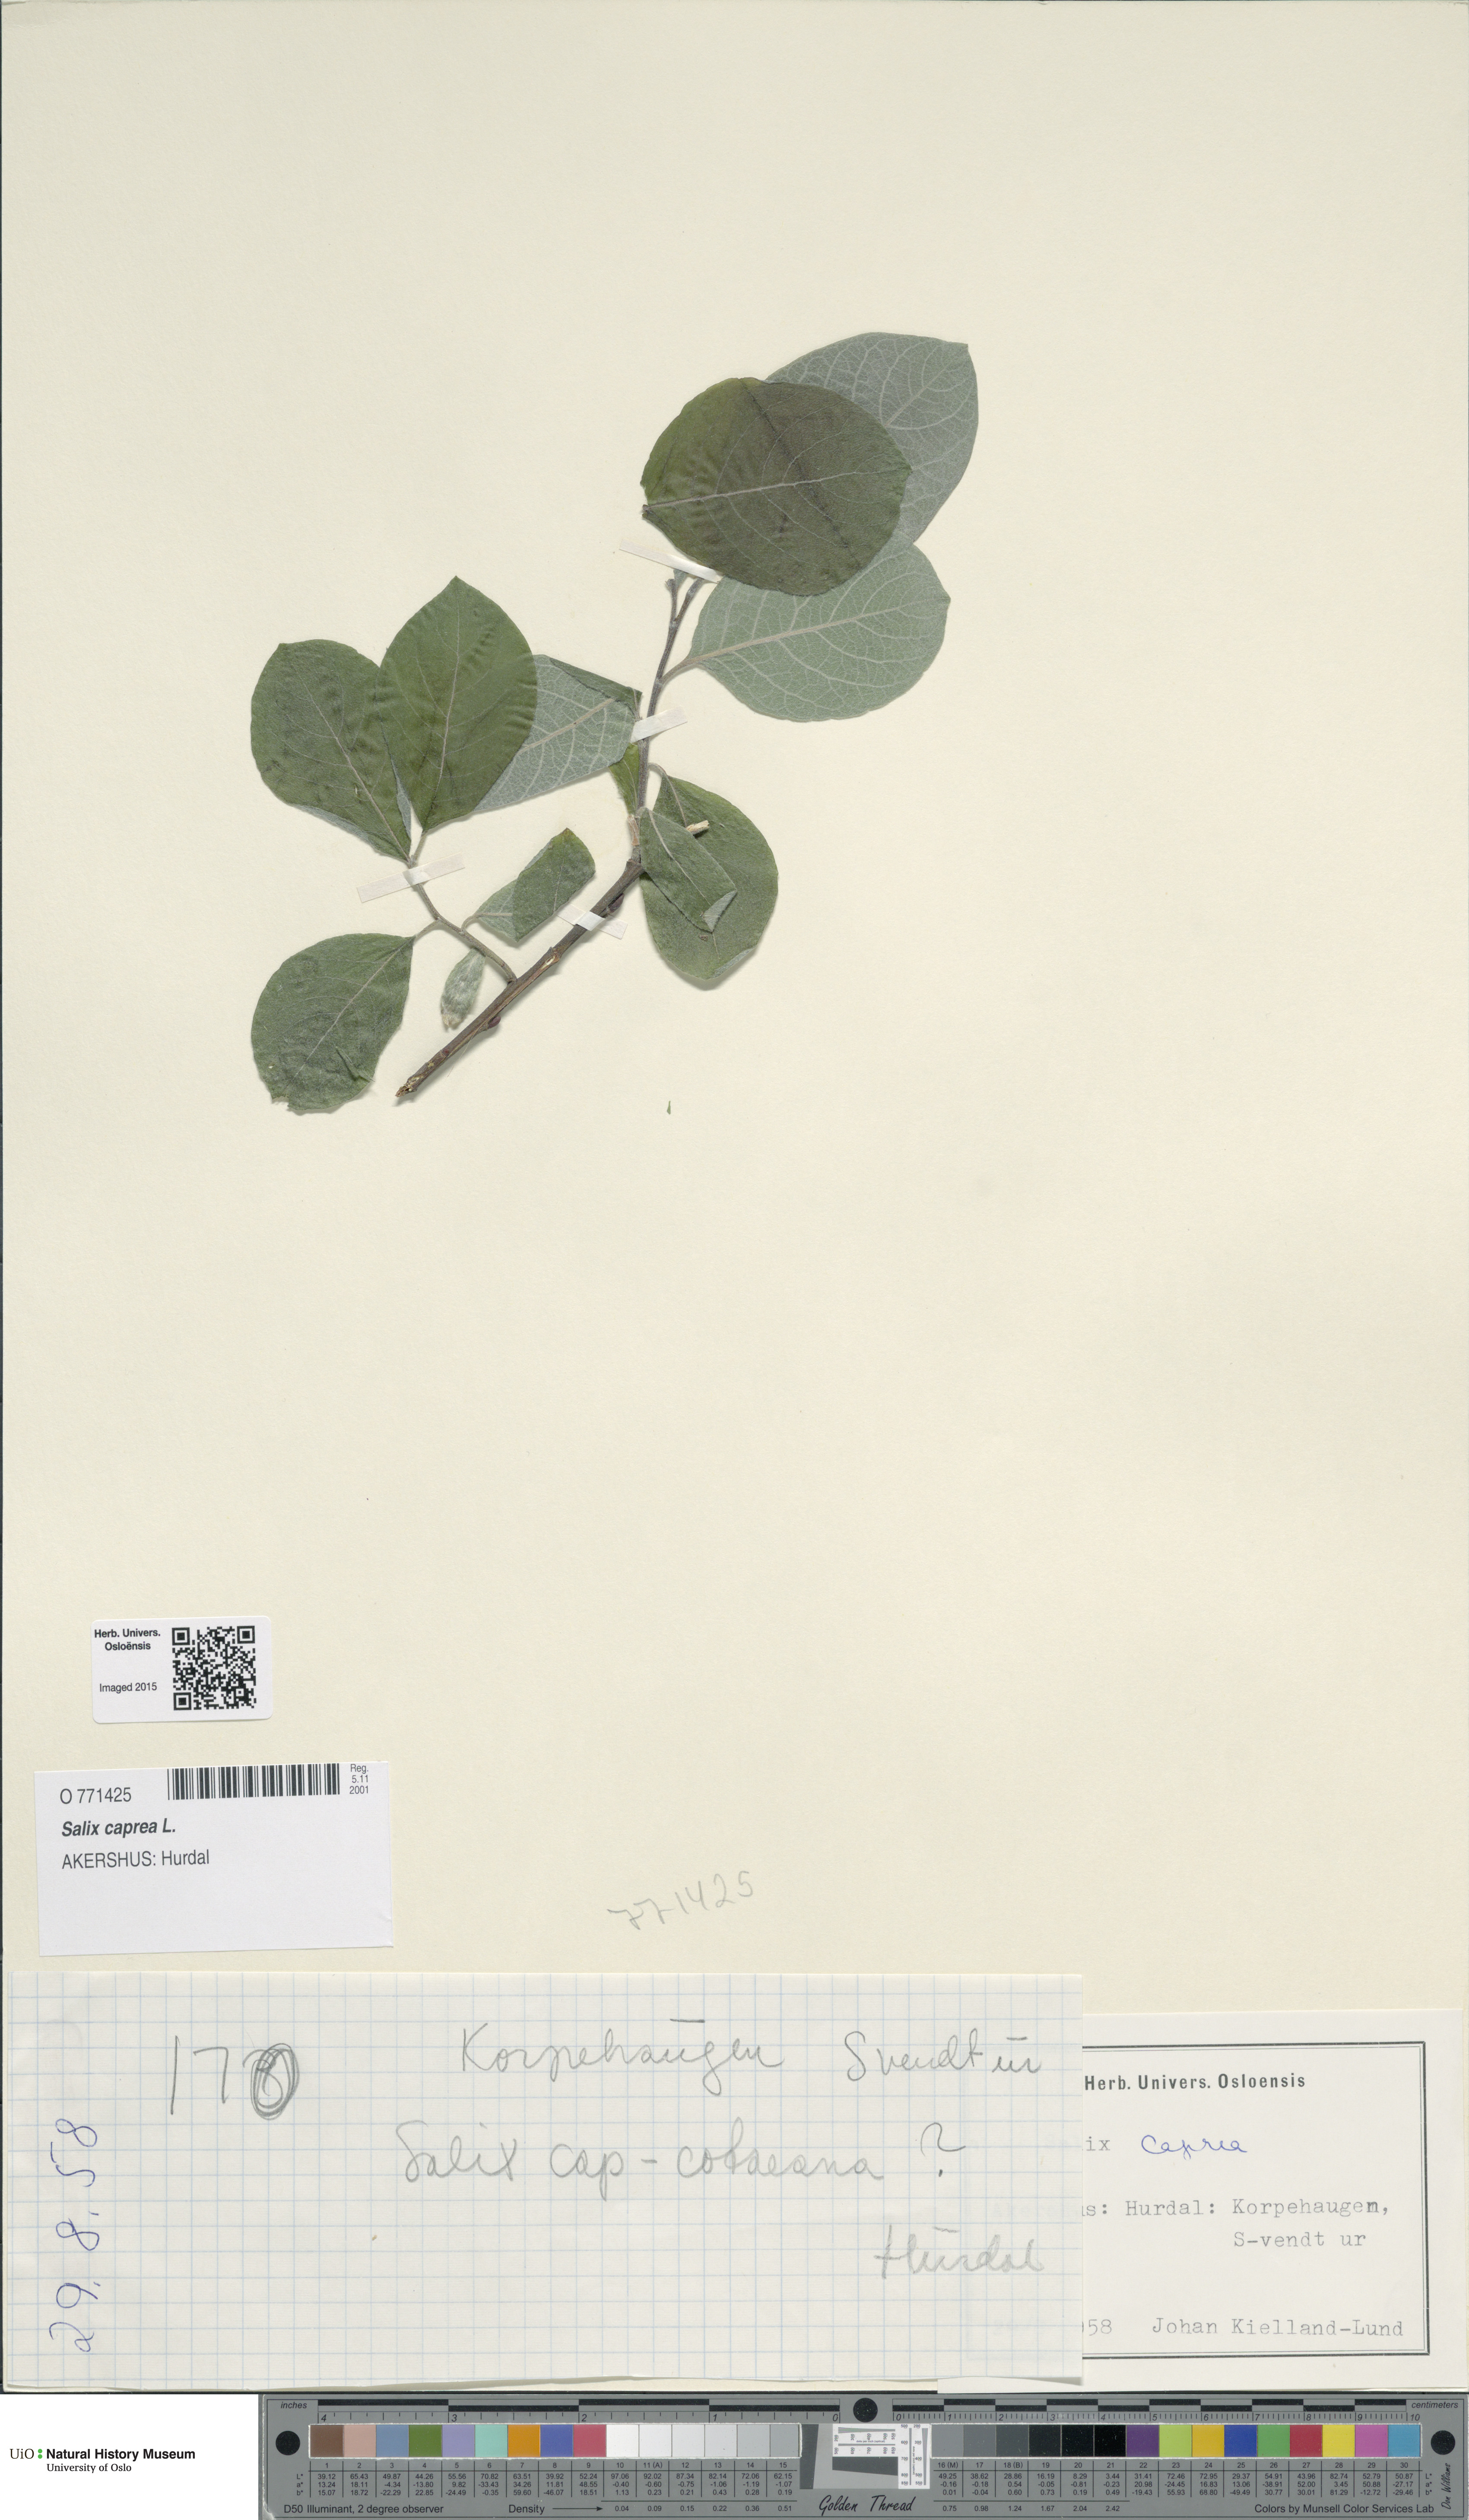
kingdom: Plantae
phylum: Tracheophyta
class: Magnoliopsida
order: Malpighiales
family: Salicaceae
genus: Salix
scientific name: Salix caprea
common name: Goat willow
